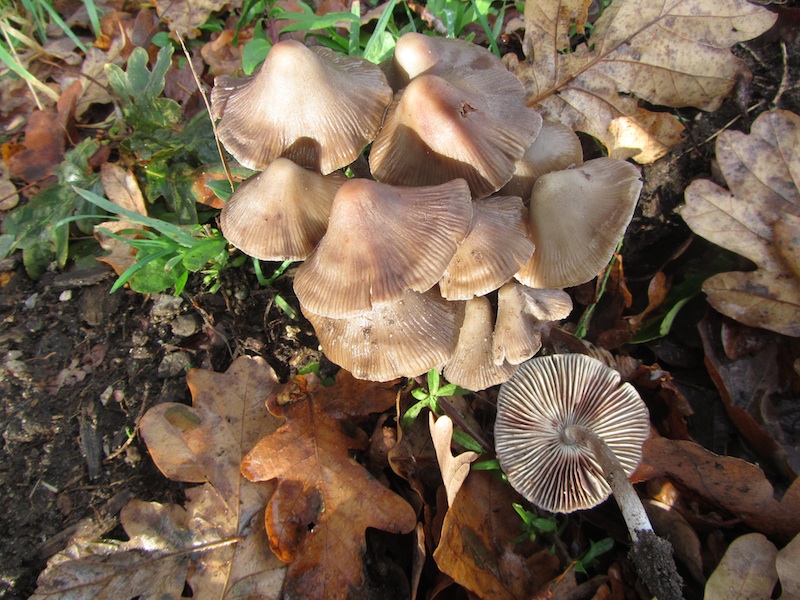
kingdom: Fungi
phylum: Basidiomycota
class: Agaricomycetes
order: Agaricales
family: Mycenaceae
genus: Mycena
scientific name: Mycena polygramma
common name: mangestribet huesvamp
